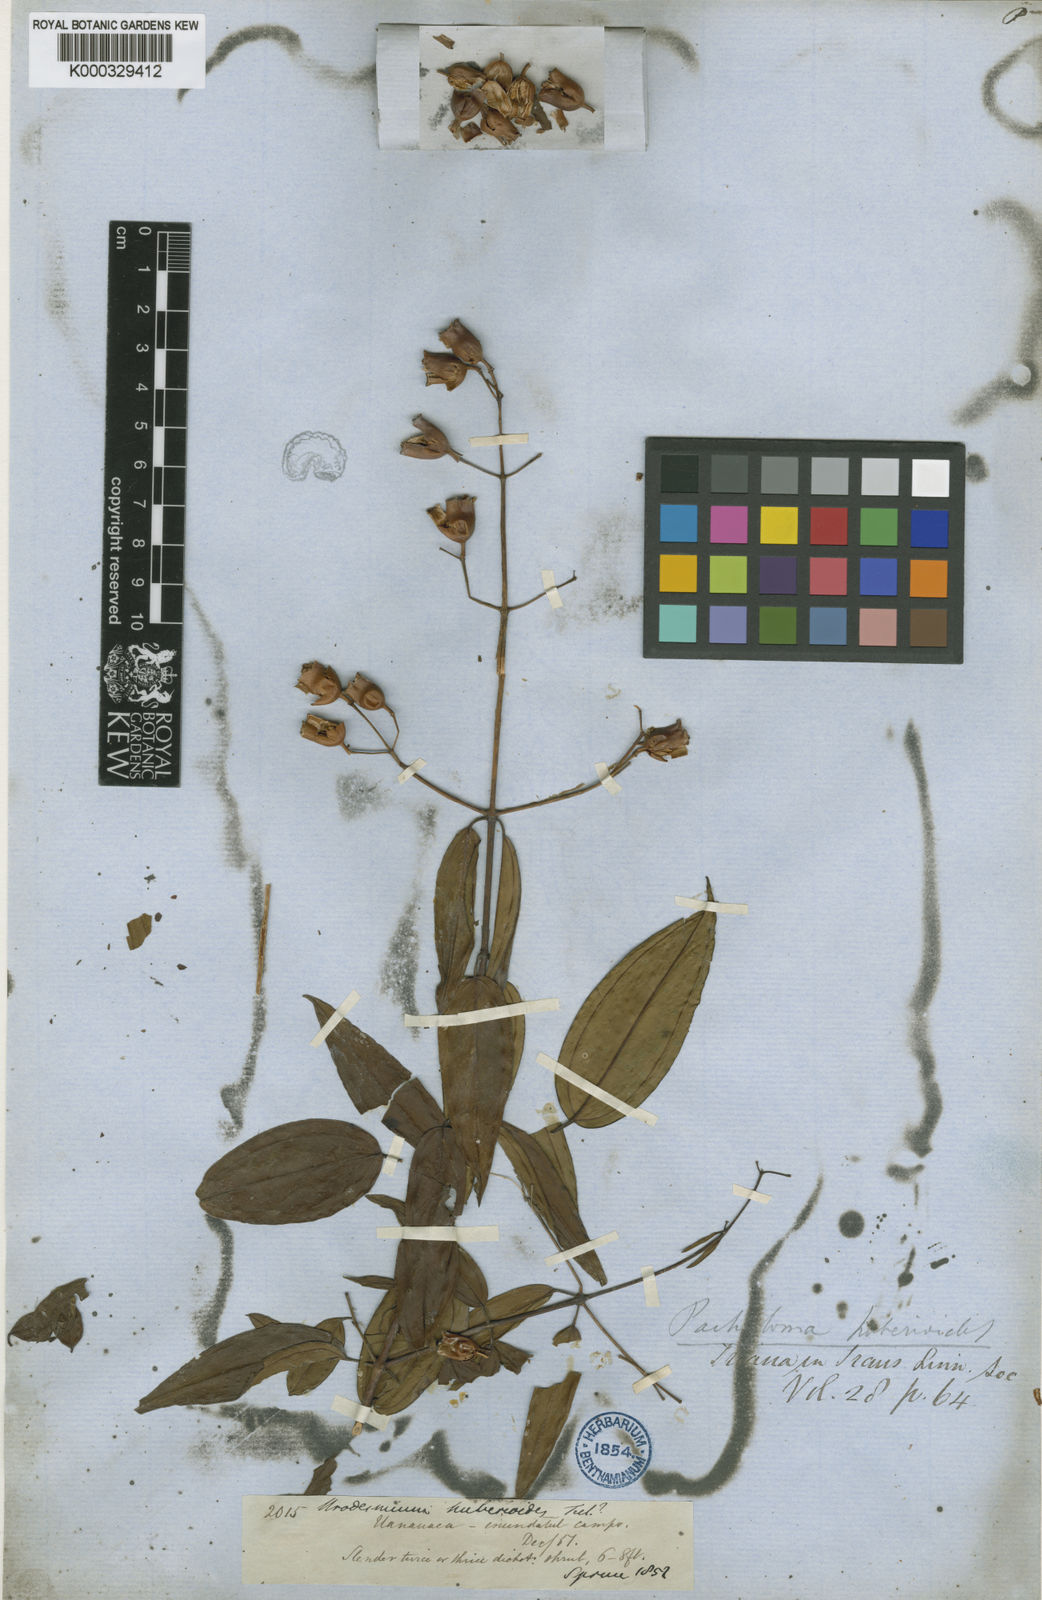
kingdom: Plantae
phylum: Tracheophyta
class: Magnoliopsida
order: Myrtales
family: Melastomataceae
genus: Pachyloma
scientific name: Pachyloma huberioides
